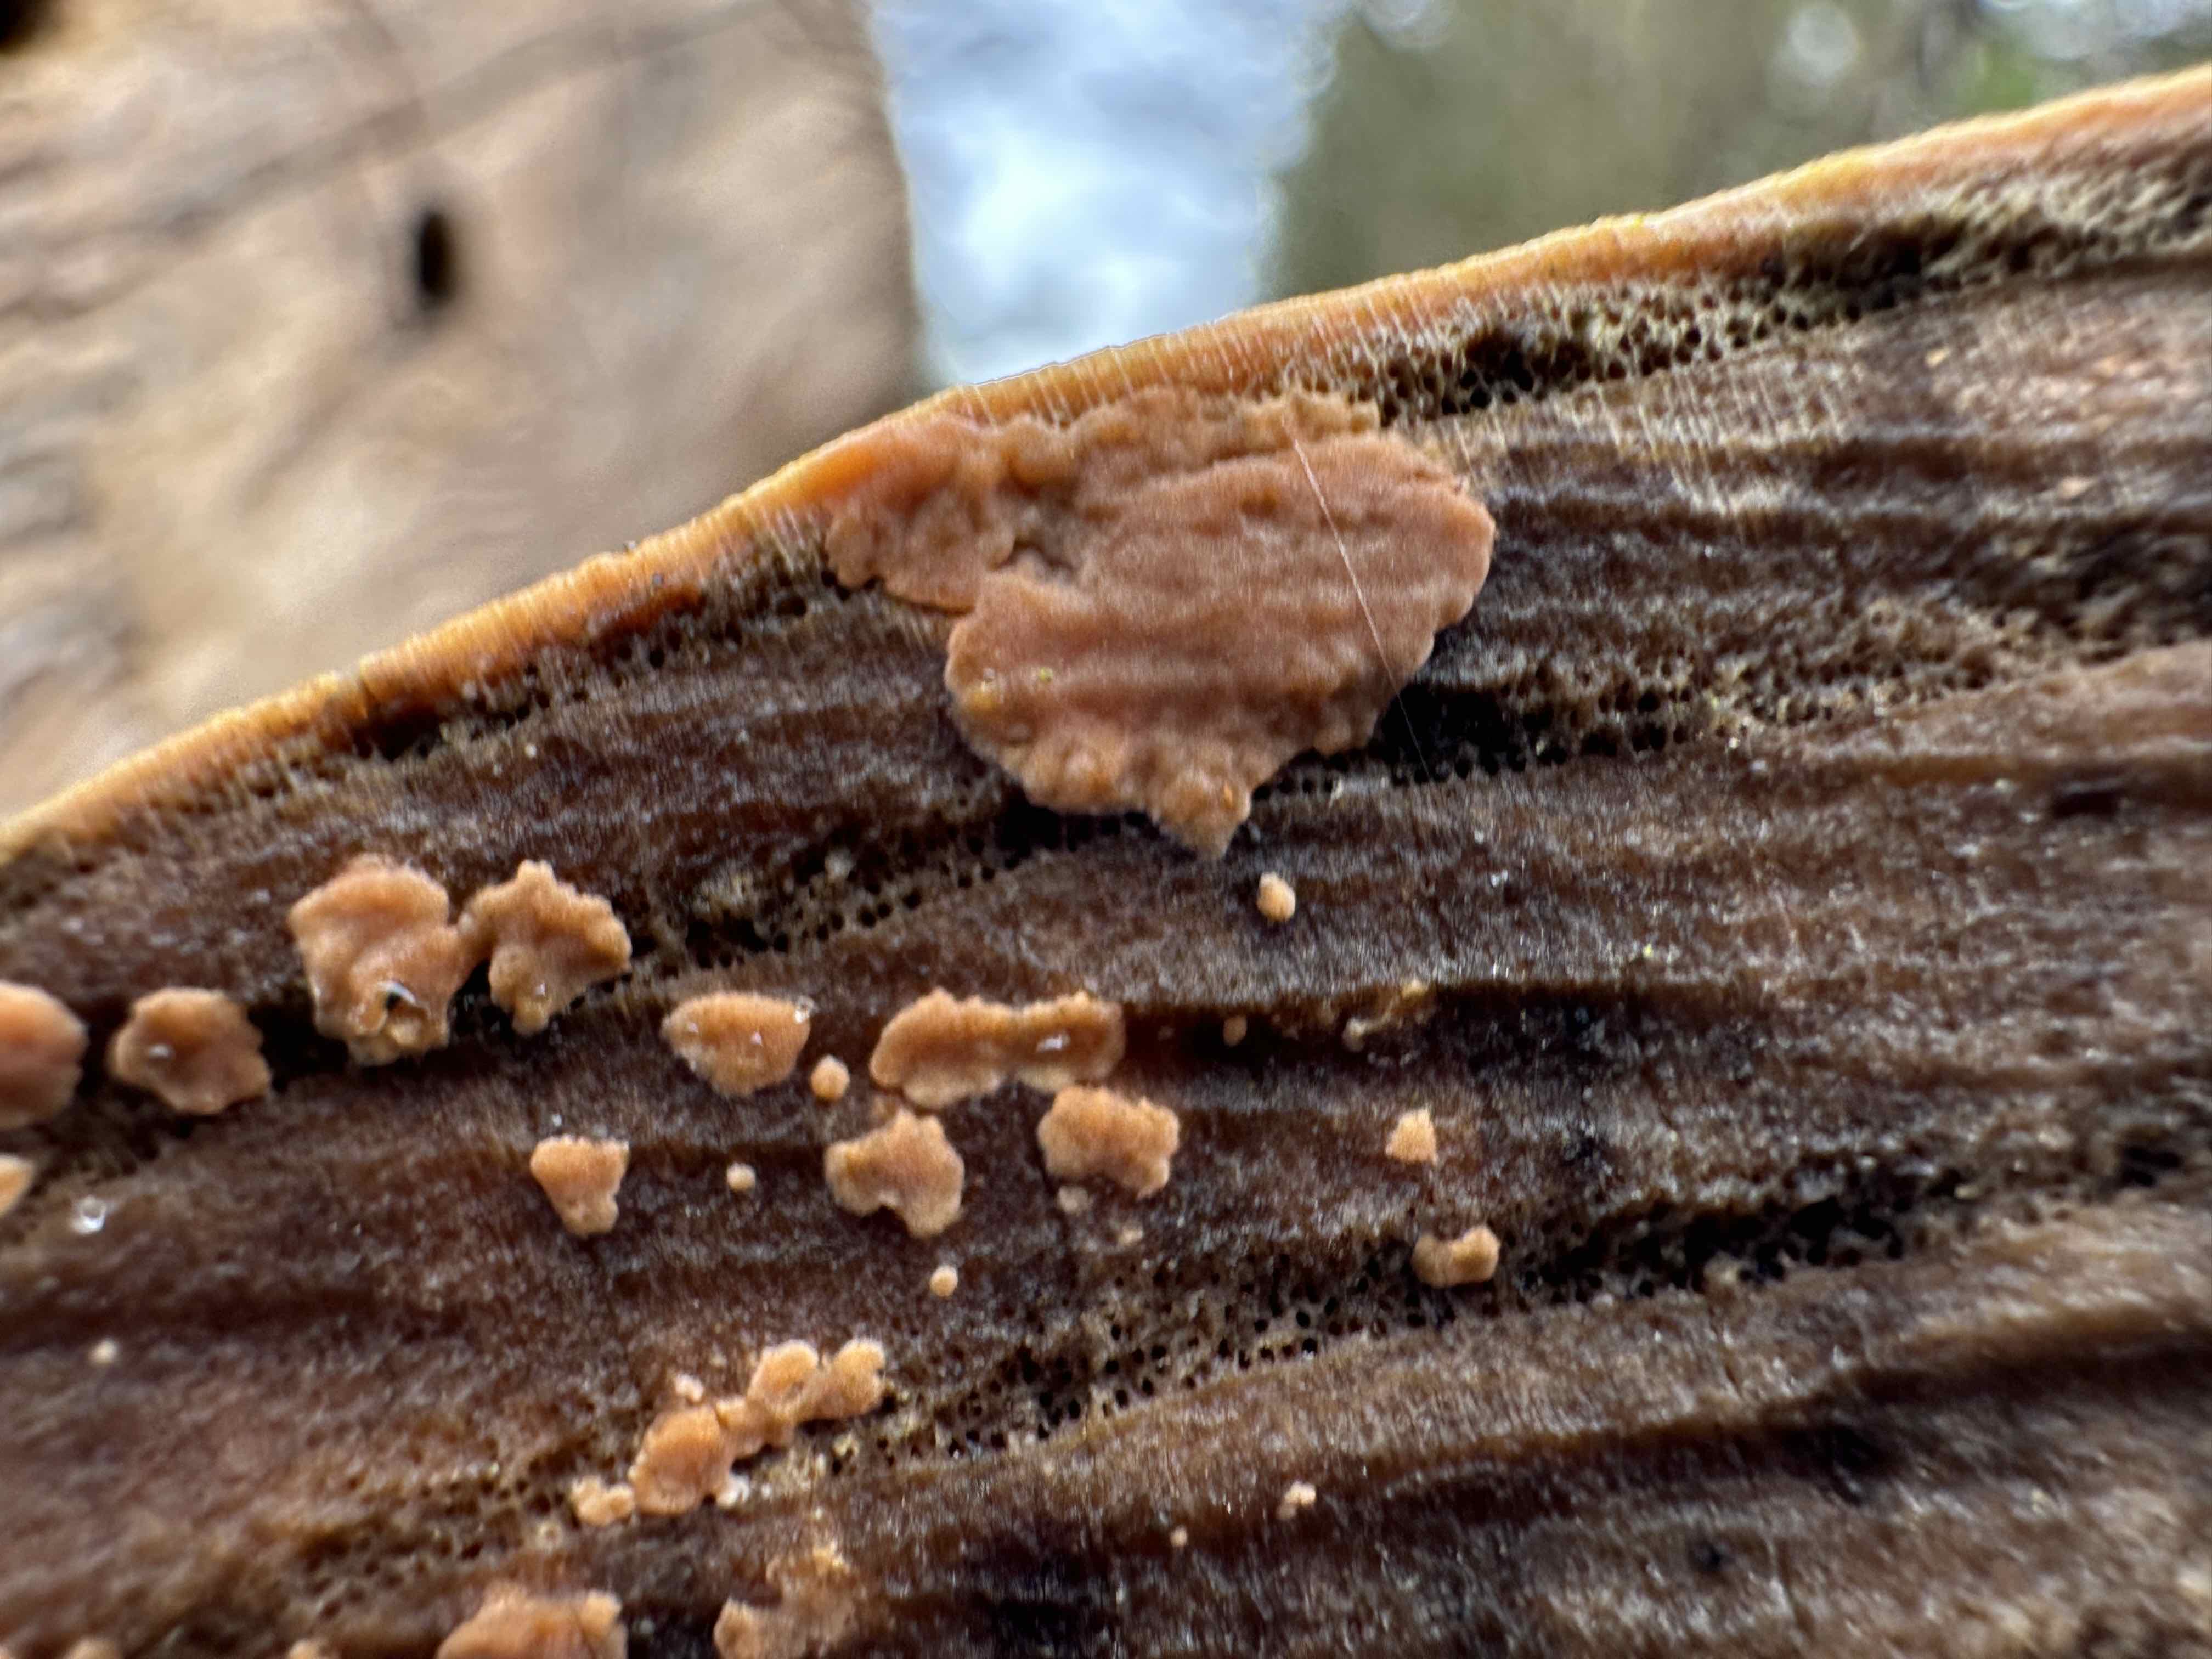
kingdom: Fungi
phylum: Basidiomycota
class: Agaricomycetes
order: Russulales
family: Peniophoraceae
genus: Peniophora
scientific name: Peniophora incarnata
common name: laksefarvet voksskind
